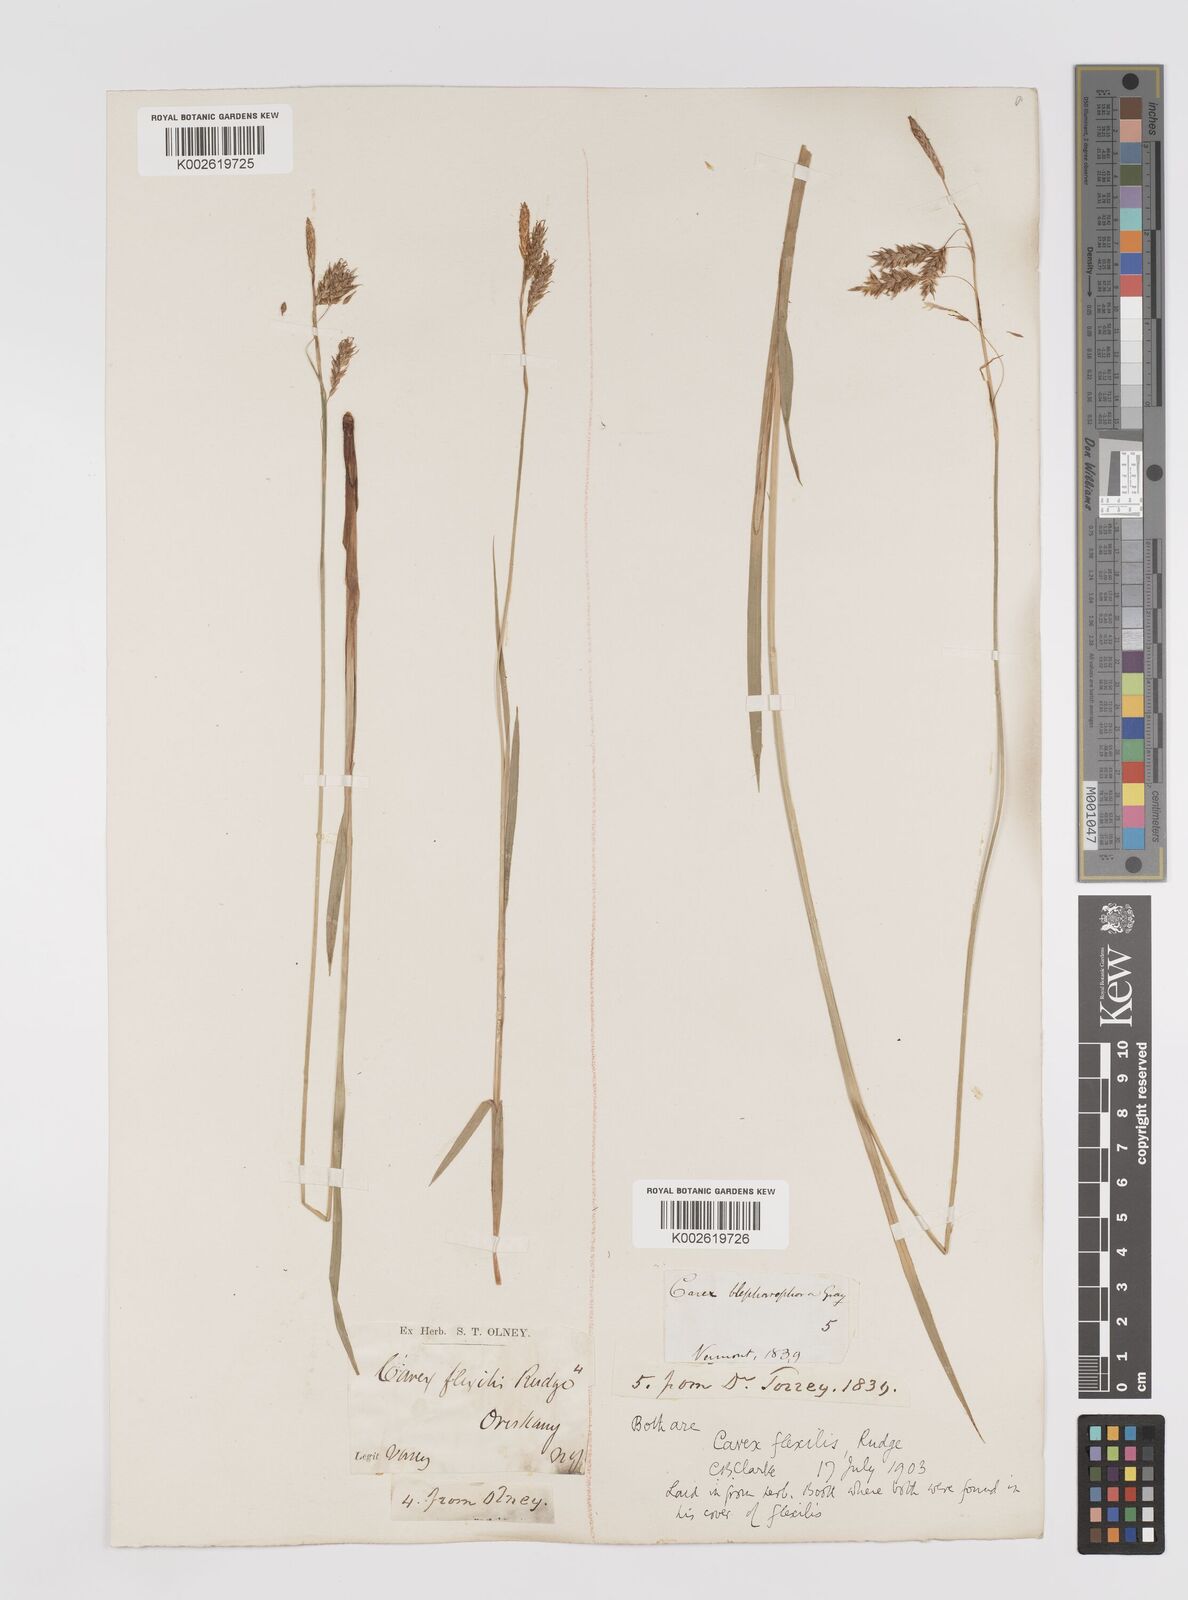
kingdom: Plantae
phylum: Tracheophyta
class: Liliopsida
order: Poales
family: Cyperaceae
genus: Carex
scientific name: Carex castanea
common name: Chestnut sedge
